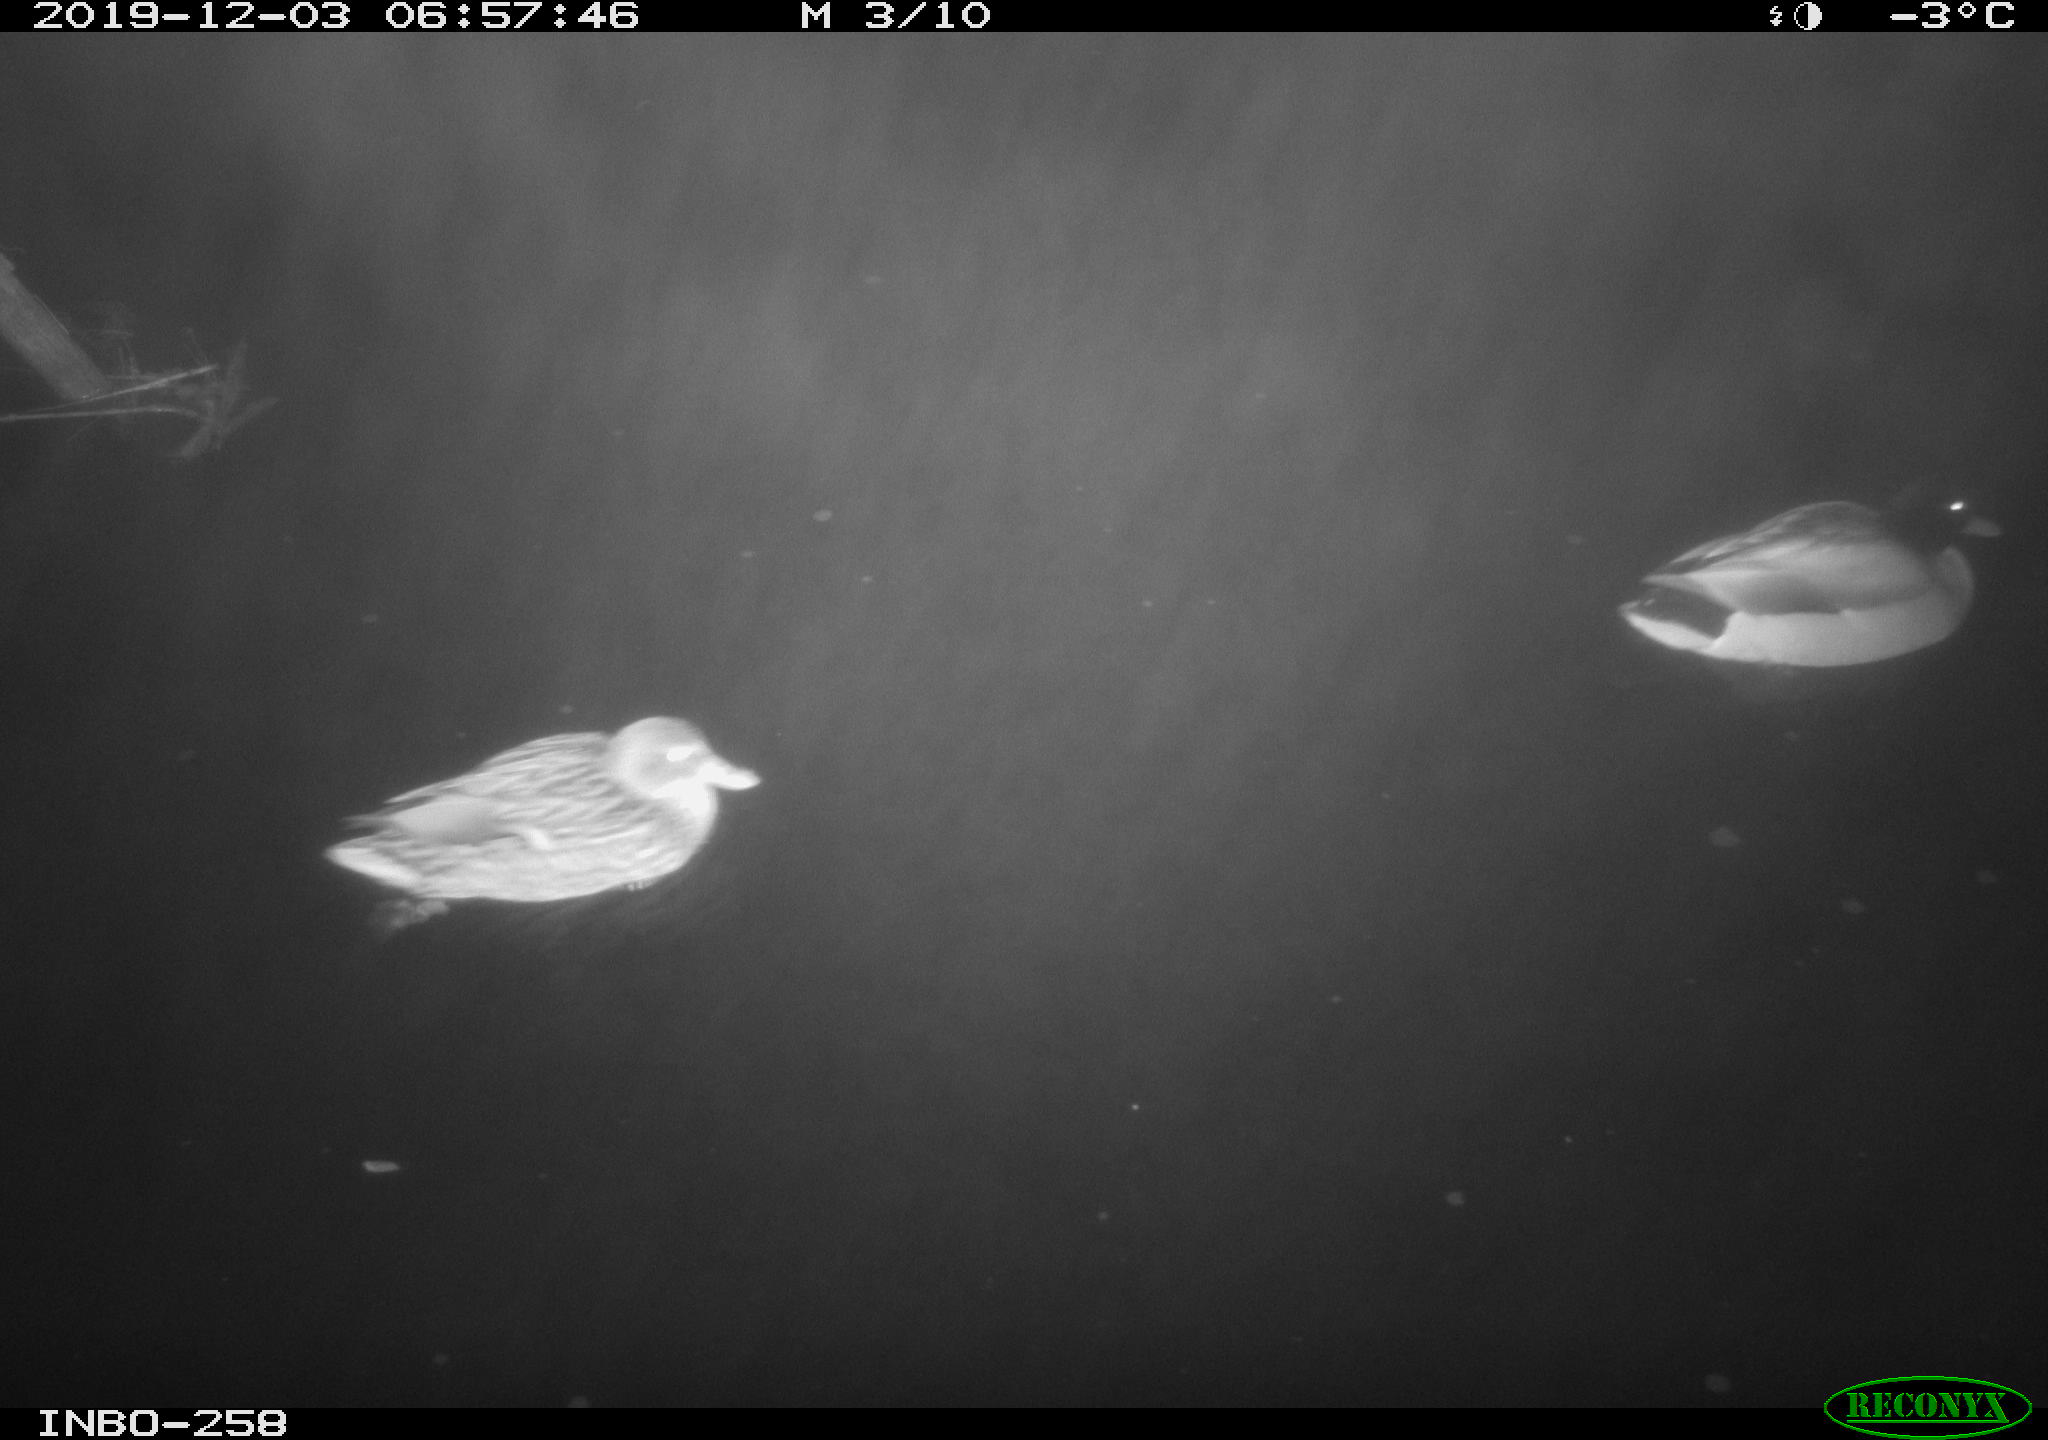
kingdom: Animalia
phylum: Chordata
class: Aves
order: Anseriformes
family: Anatidae
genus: Anas
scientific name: Anas platyrhynchos
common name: Mallard
